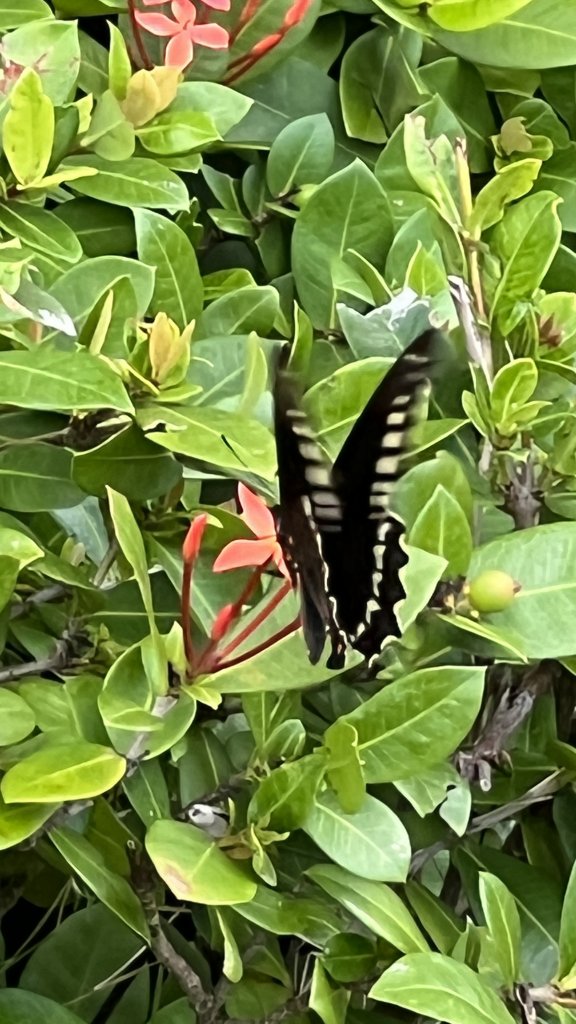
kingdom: Animalia
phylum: Arthropoda
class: Insecta
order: Lepidoptera
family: Papilionidae
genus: Battus
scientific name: Battus polydamas
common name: Polydamas Swallowtail
